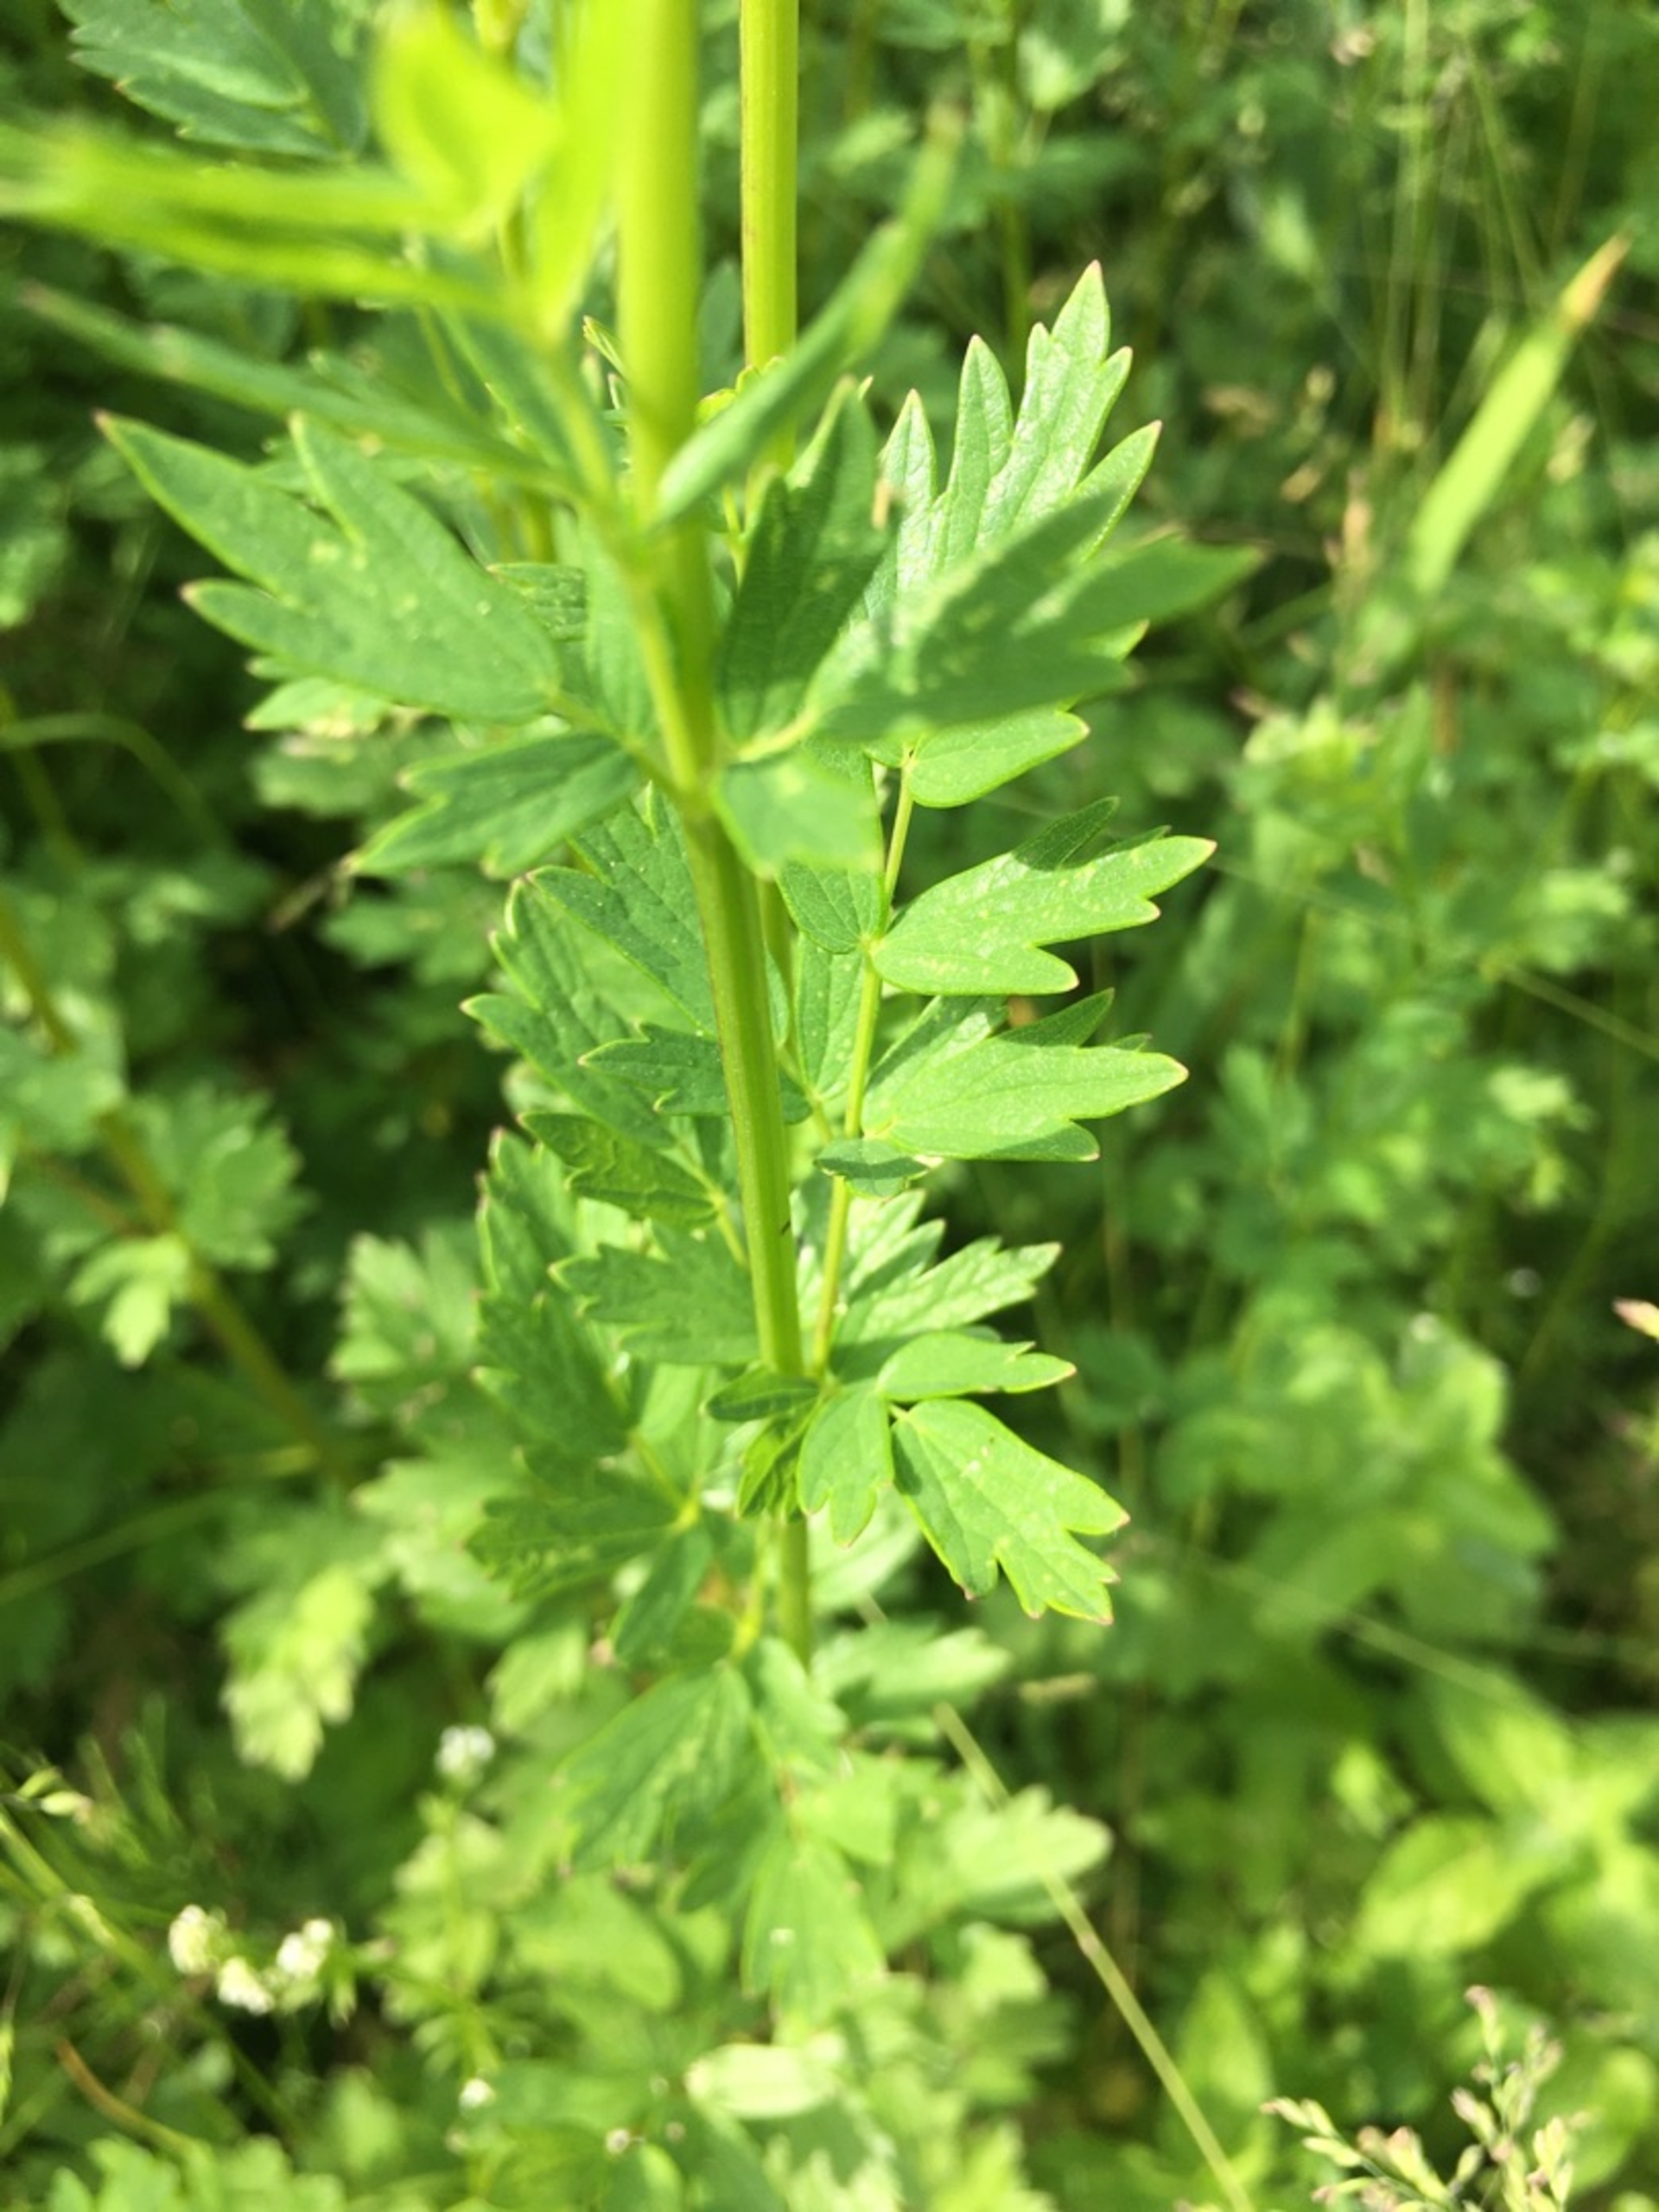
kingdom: Plantae
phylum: Tracheophyta
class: Magnoliopsida
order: Ranunculales
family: Ranunculaceae
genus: Thalictrum
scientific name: Thalictrum flavum
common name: Gul frøstjerne
